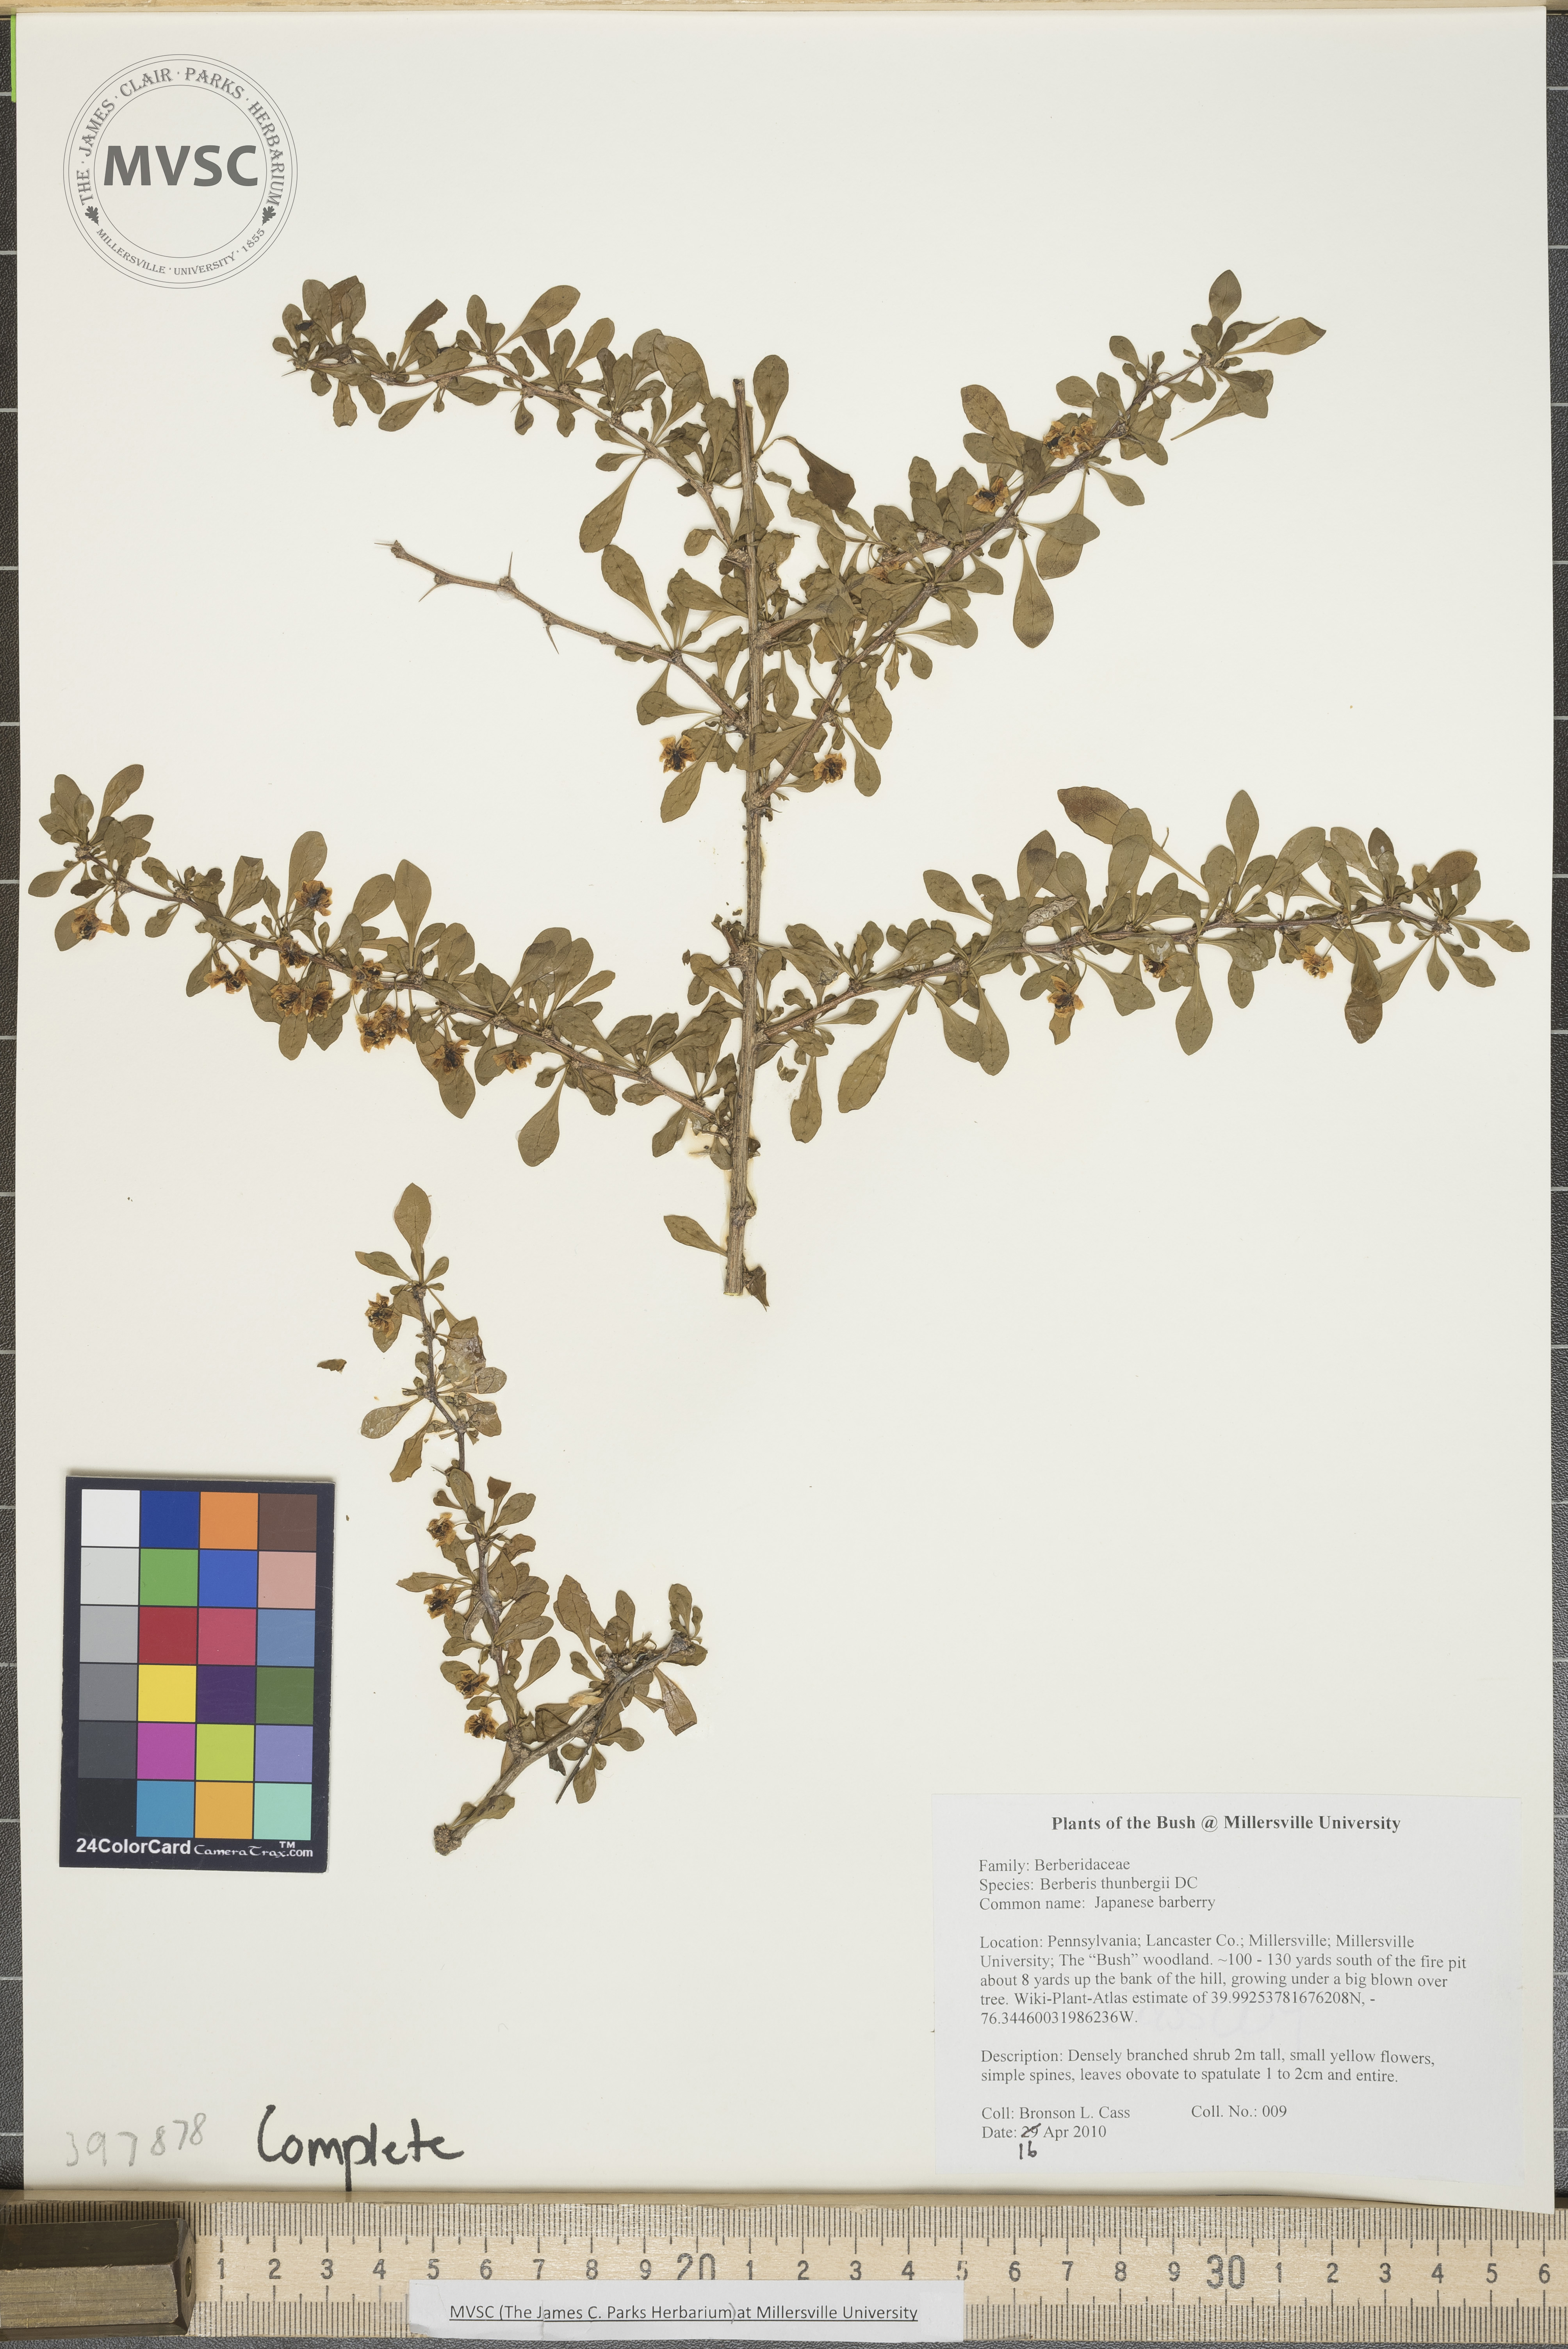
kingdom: Plantae
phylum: Tracheophyta
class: Magnoliopsida
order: Ranunculales
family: Berberidaceae
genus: Berberis
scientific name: Berberis thunbergii
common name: Japanese barberry
